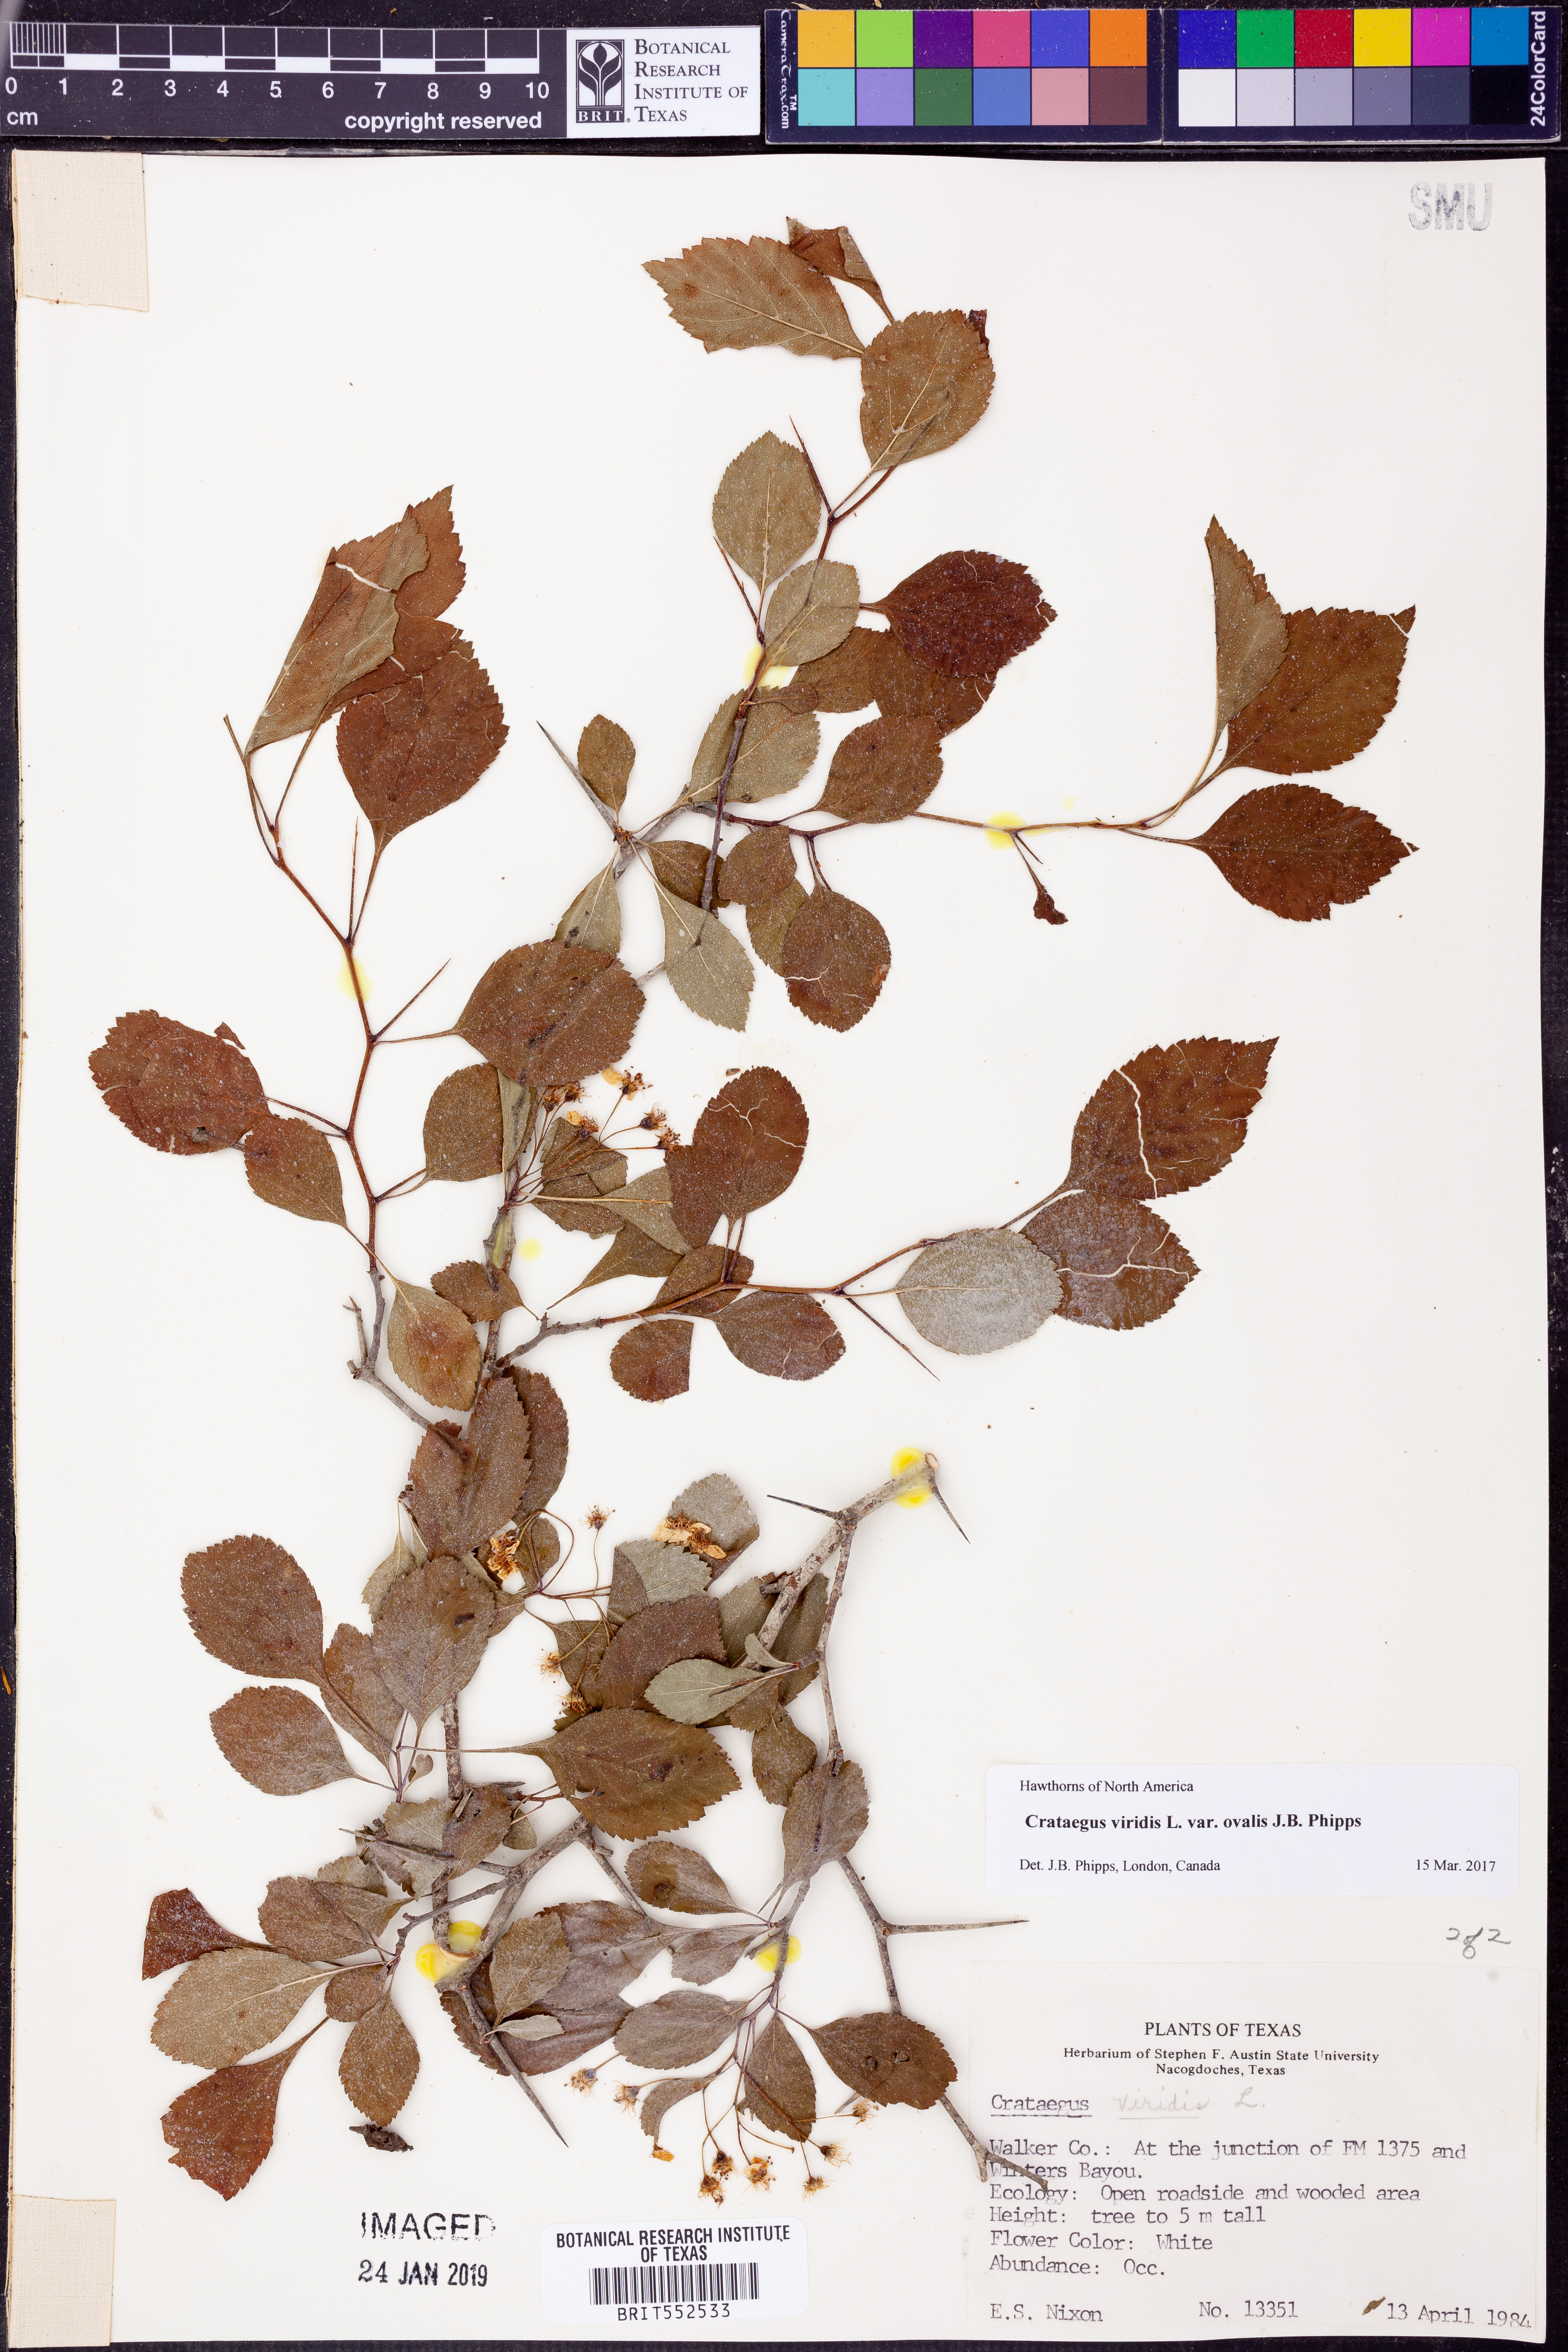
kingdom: Plantae
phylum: Tracheophyta
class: Magnoliopsida
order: Rosales
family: Rosaceae
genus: Crataegus
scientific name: Crataegus viridis
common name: Southernthorn
